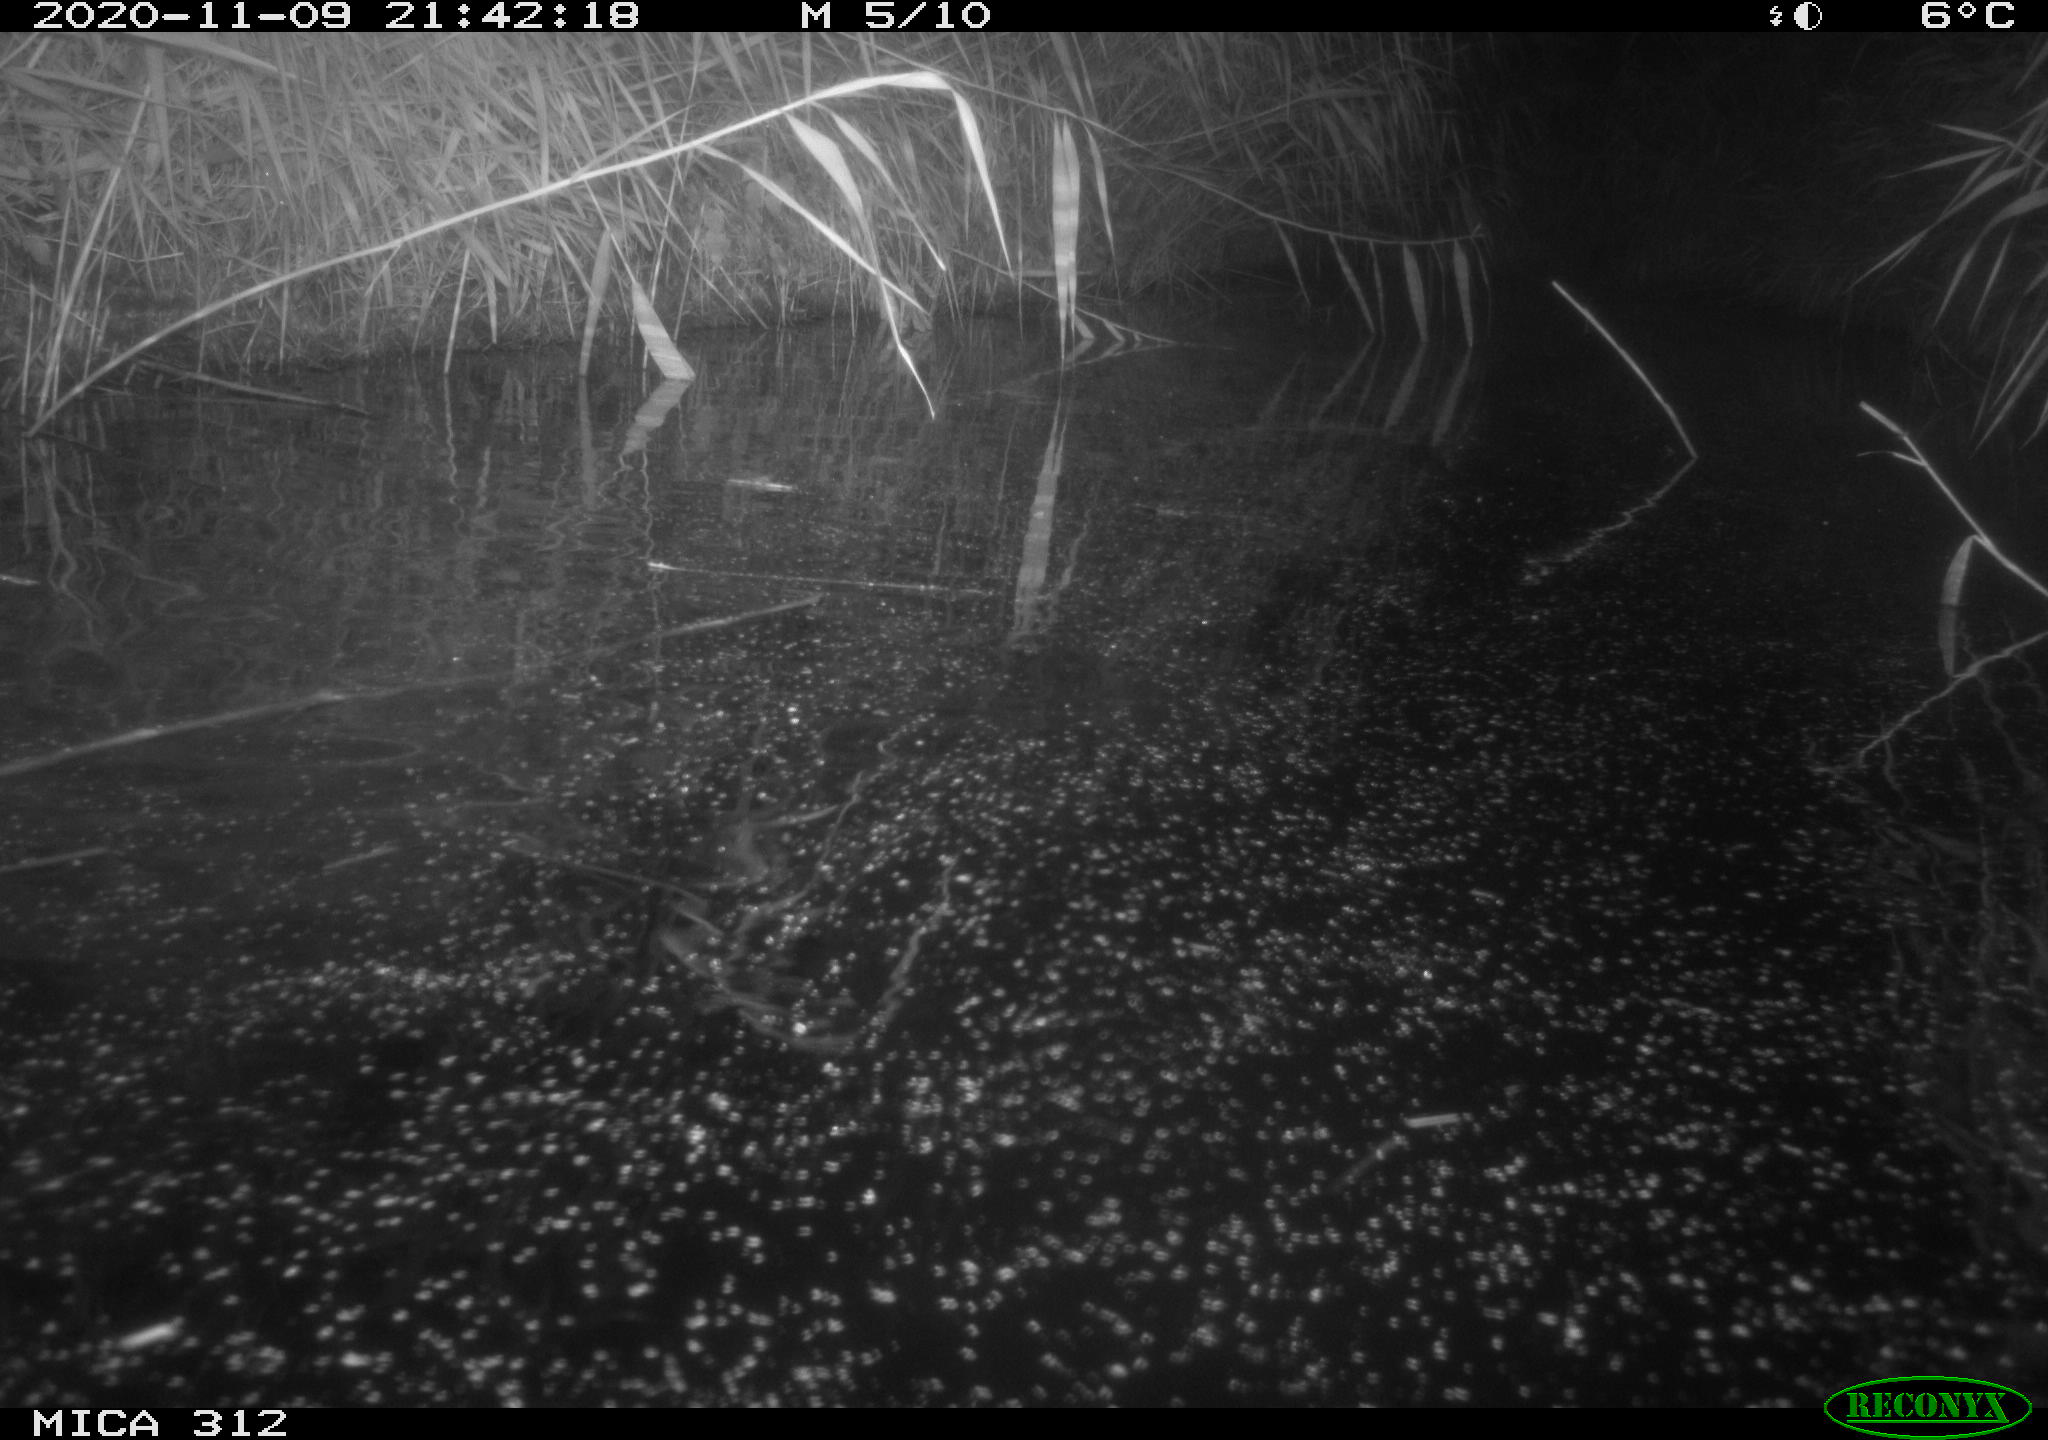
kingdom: Animalia
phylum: Chordata
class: Mammalia
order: Rodentia
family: Muridae
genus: Rattus
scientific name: Rattus norvegicus
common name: Brown rat
